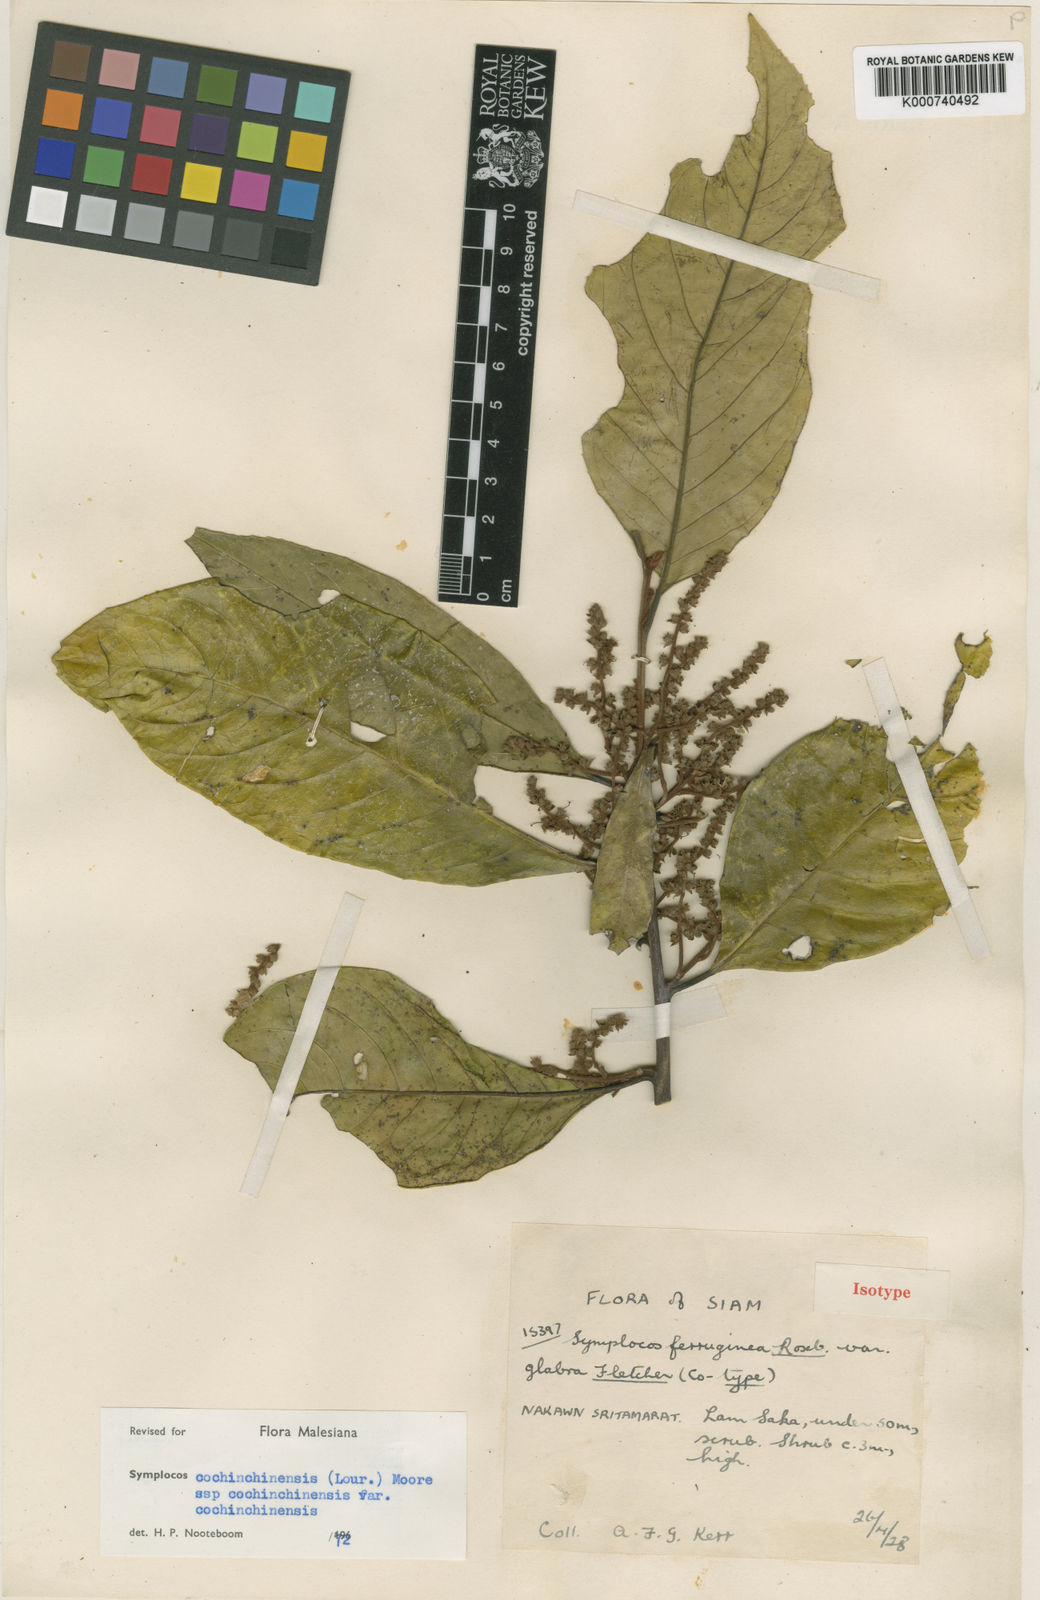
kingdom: Plantae
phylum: Tracheophyta
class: Magnoliopsida
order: Ericales
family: Symplocaceae
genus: Symplocos
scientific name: Symplocos cochinchinensis
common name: Buff hazelwood
